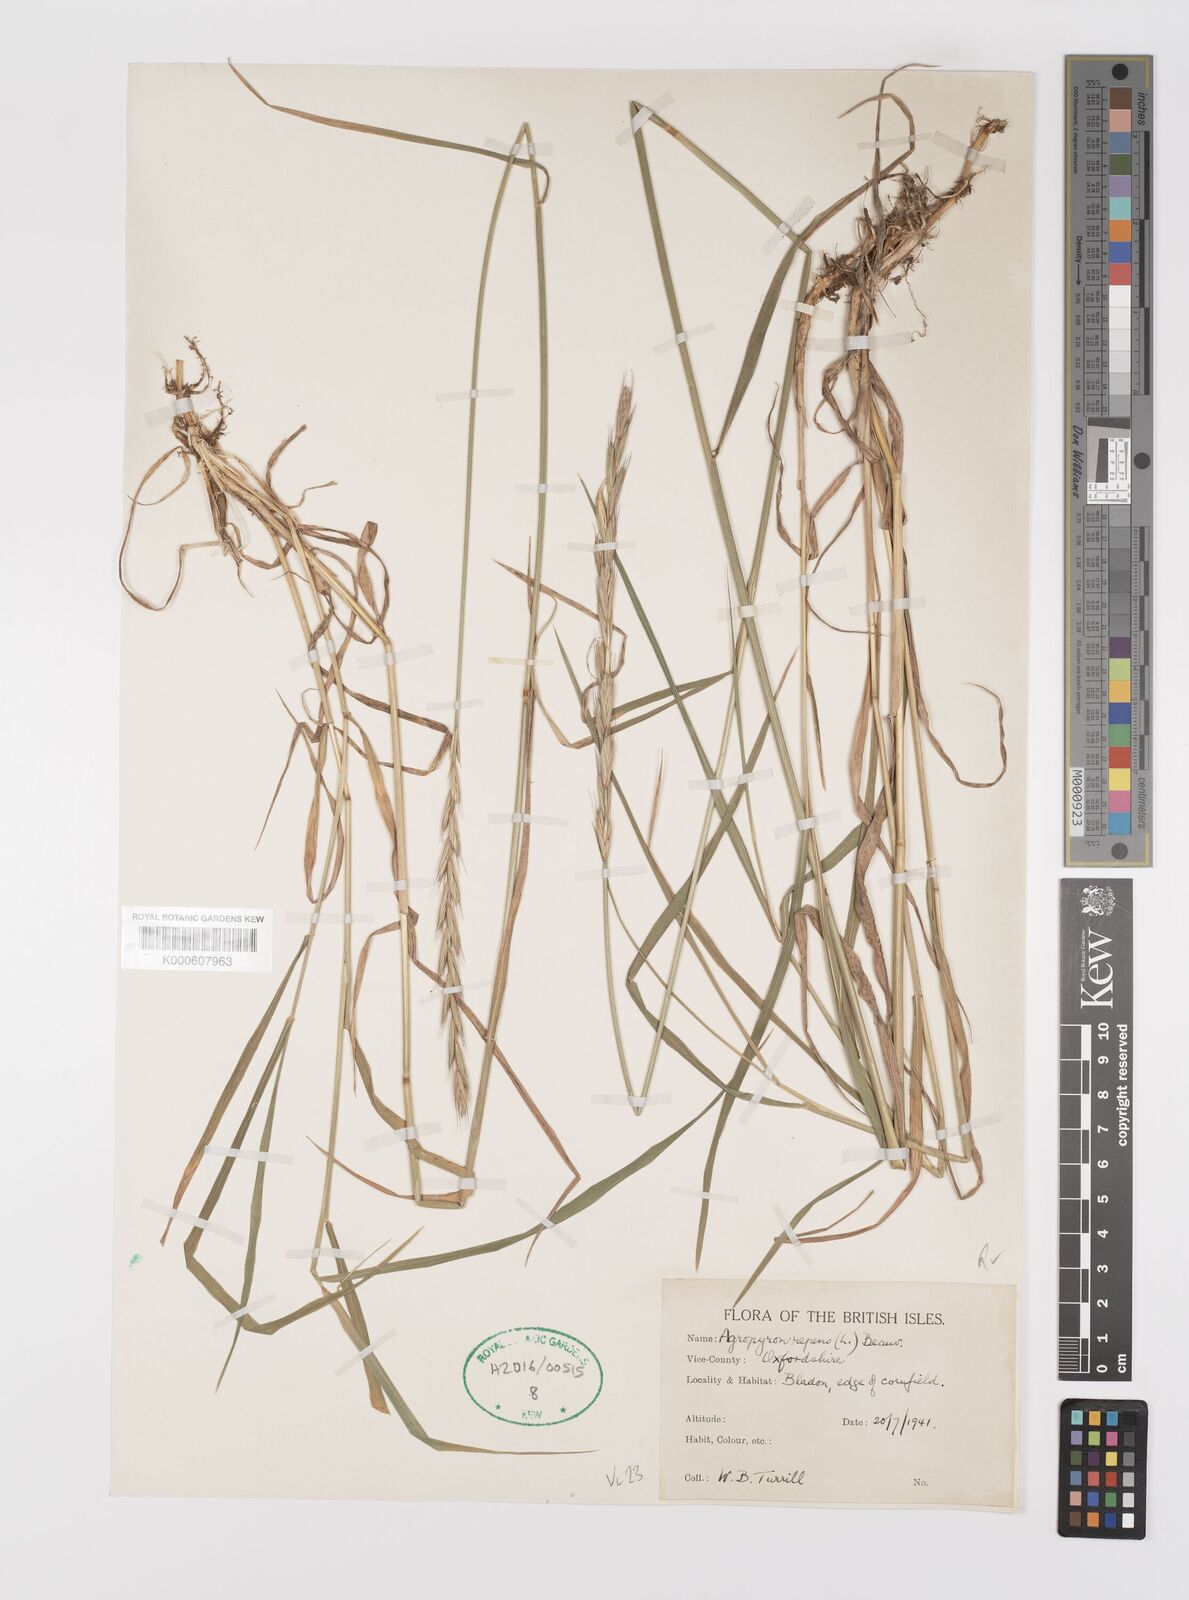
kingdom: Plantae
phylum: Tracheophyta
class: Liliopsida
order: Poales
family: Poaceae
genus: Elymus
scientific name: Elymus repens
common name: Quackgrass
